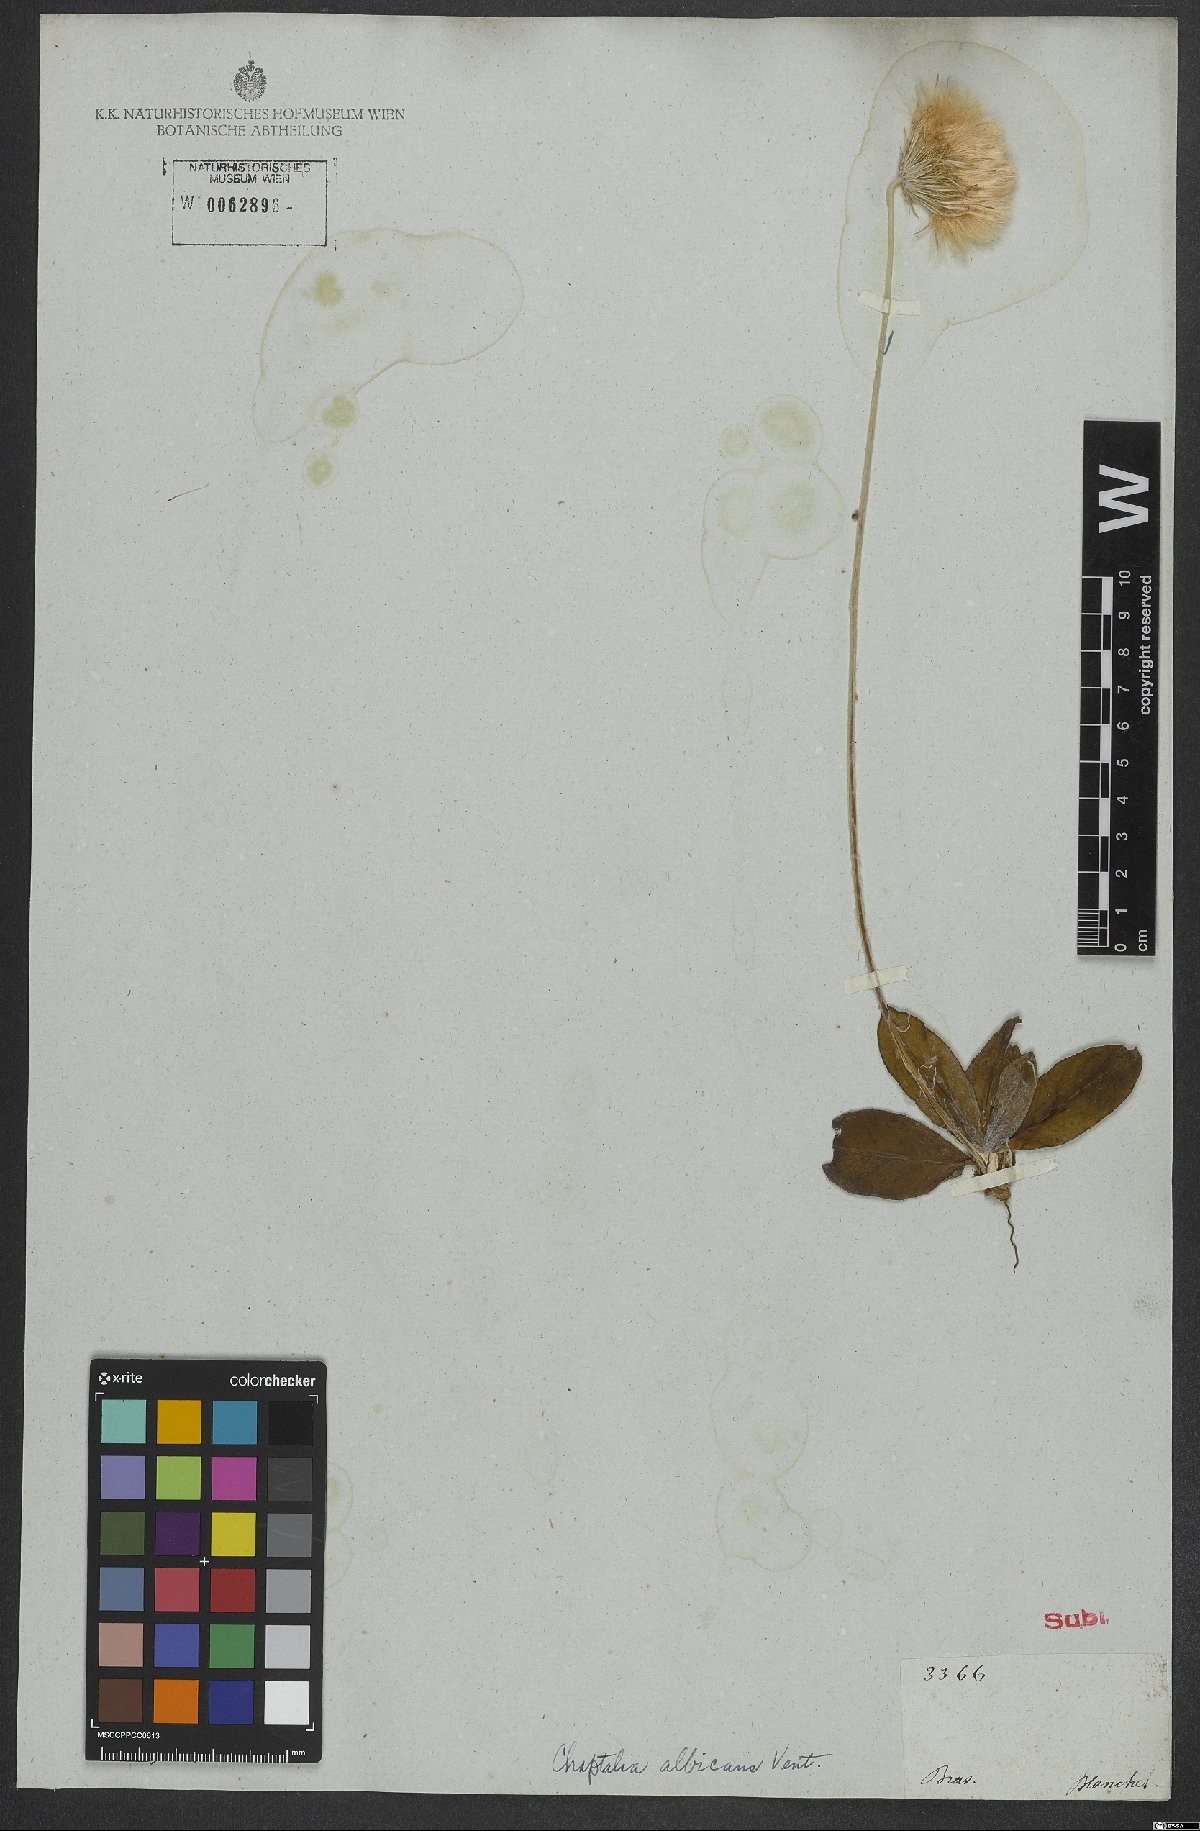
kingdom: Plantae
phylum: Tracheophyta
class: Magnoliopsida
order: Asterales
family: Asteraceae
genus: Chaptalia
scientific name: Chaptalia albicans
